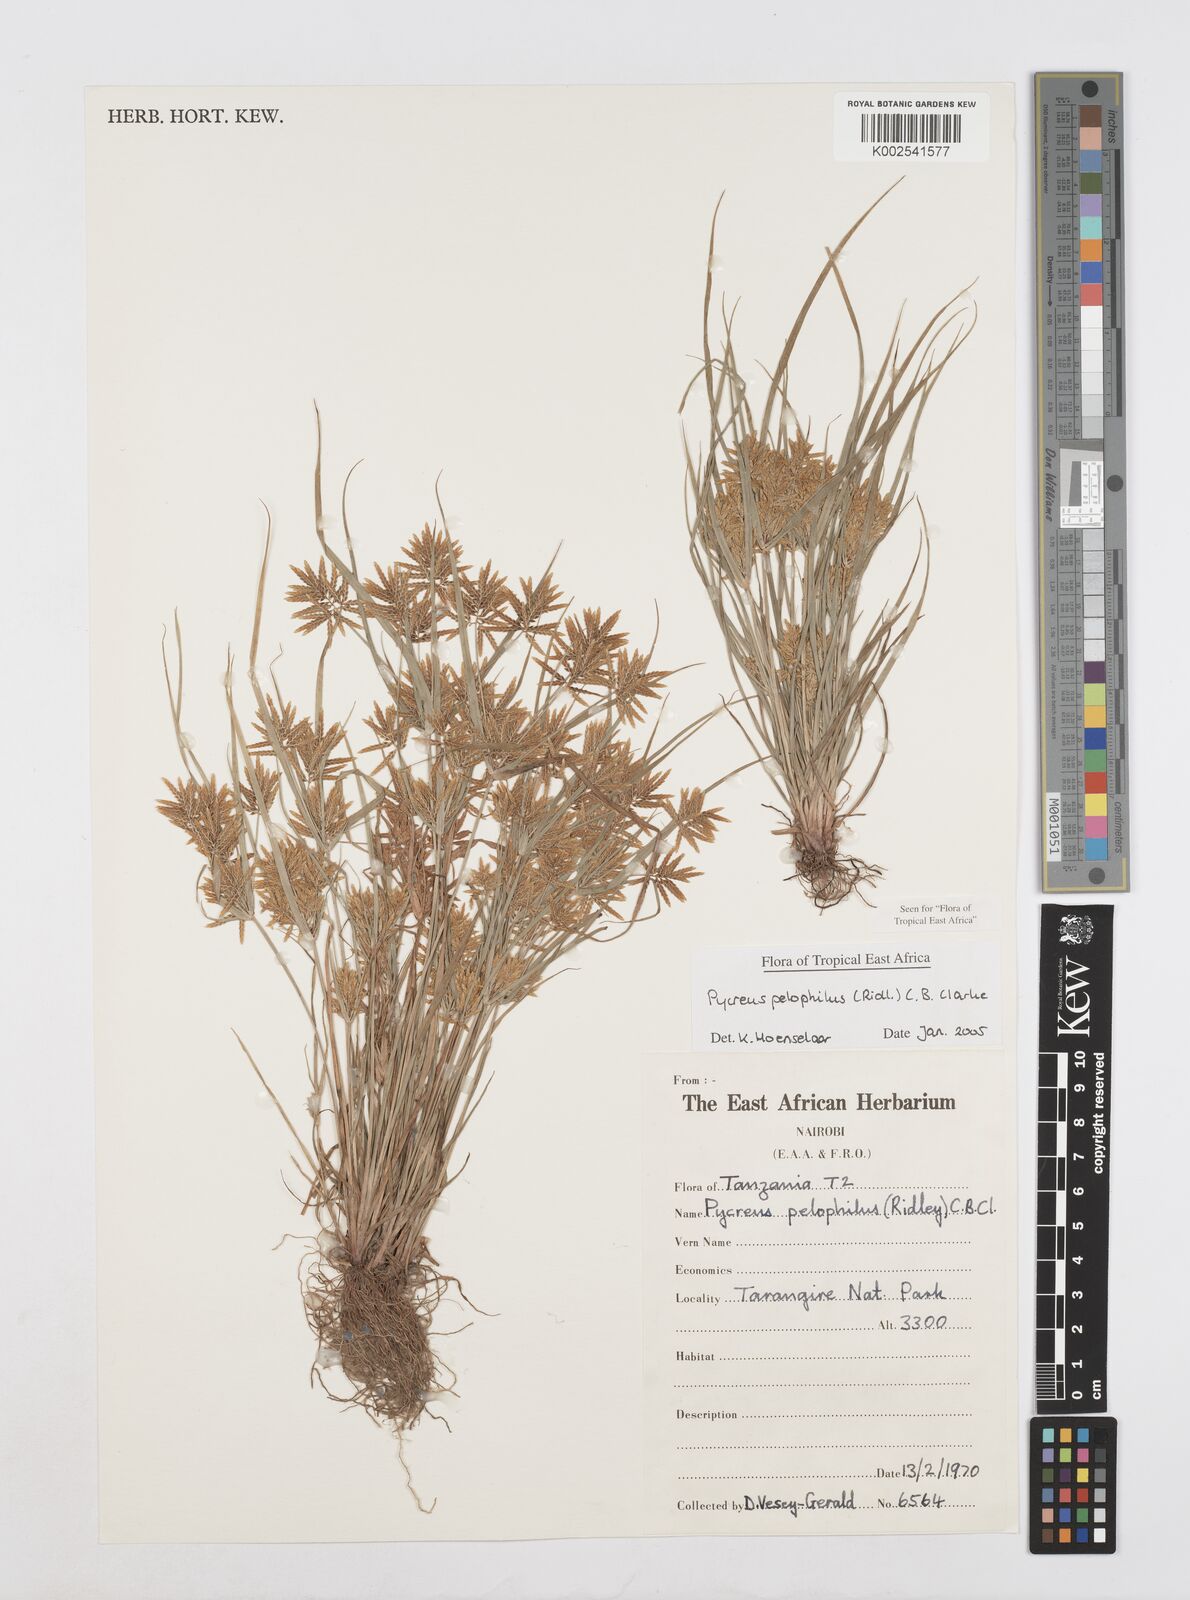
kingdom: Plantae
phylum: Tracheophyta
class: Liliopsida
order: Poales
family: Cyperaceae
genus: Cyperus
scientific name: Cyperus pelophilus
